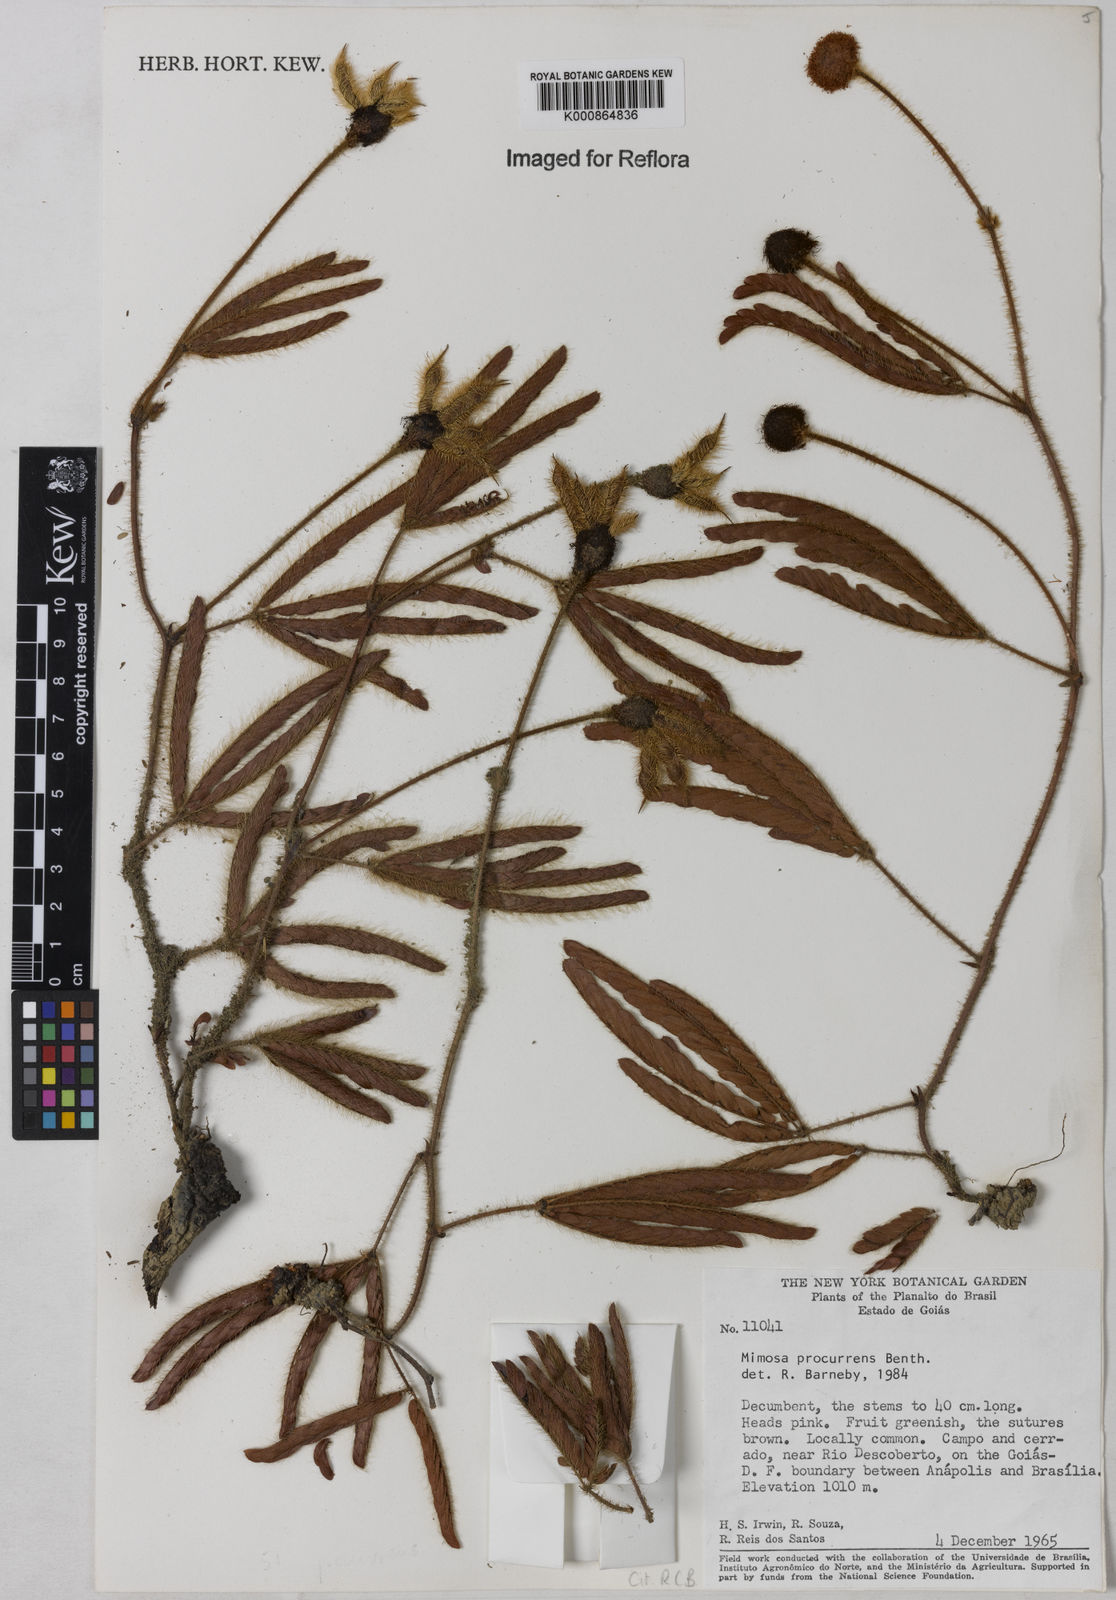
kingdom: Plantae
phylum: Tracheophyta
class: Magnoliopsida
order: Fabales
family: Fabaceae
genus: Mimosa
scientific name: Mimosa procurrens
